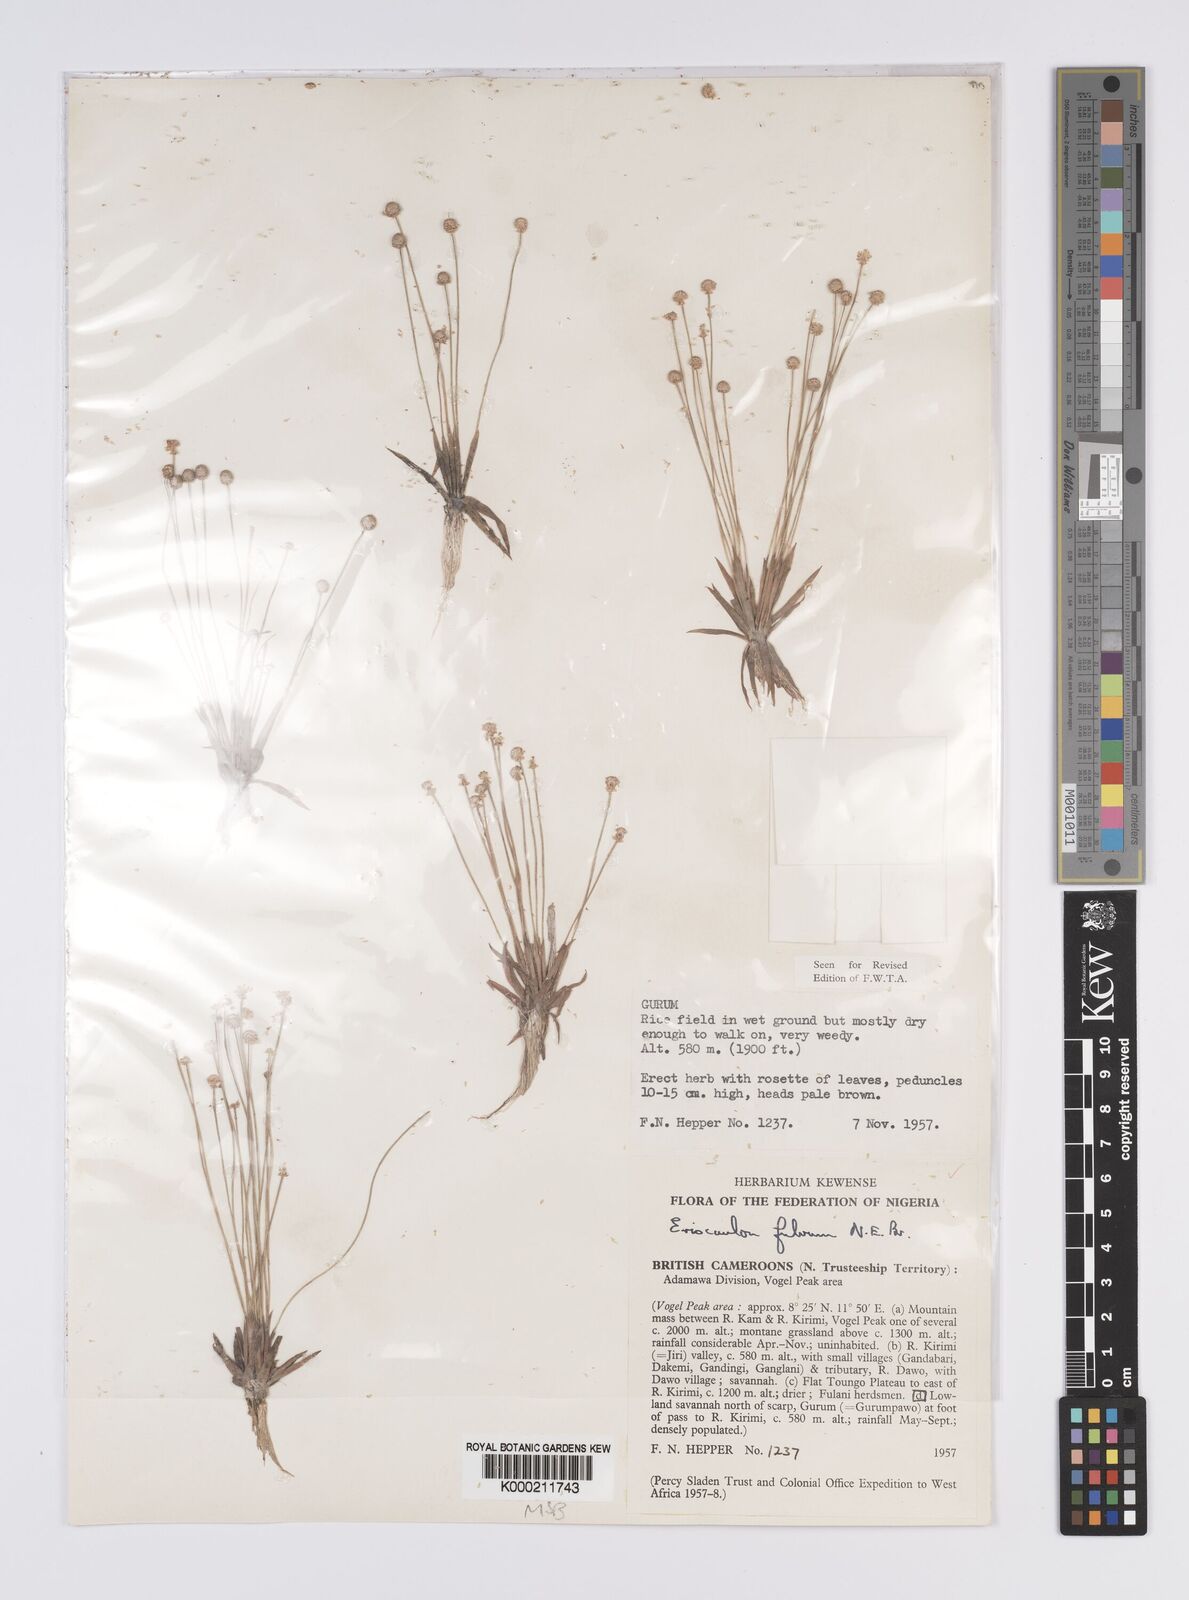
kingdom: Plantae
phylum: Tracheophyta
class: Liliopsida
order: Poales
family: Eriocaulaceae
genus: Eriocaulon
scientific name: Eriocaulon fulvum
